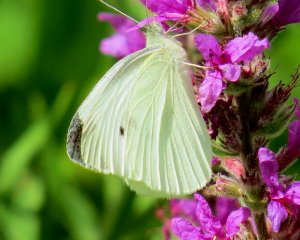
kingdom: Animalia
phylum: Arthropoda
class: Insecta
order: Lepidoptera
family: Pieridae
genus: Pieris
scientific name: Pieris rapae
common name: Cabbage White
